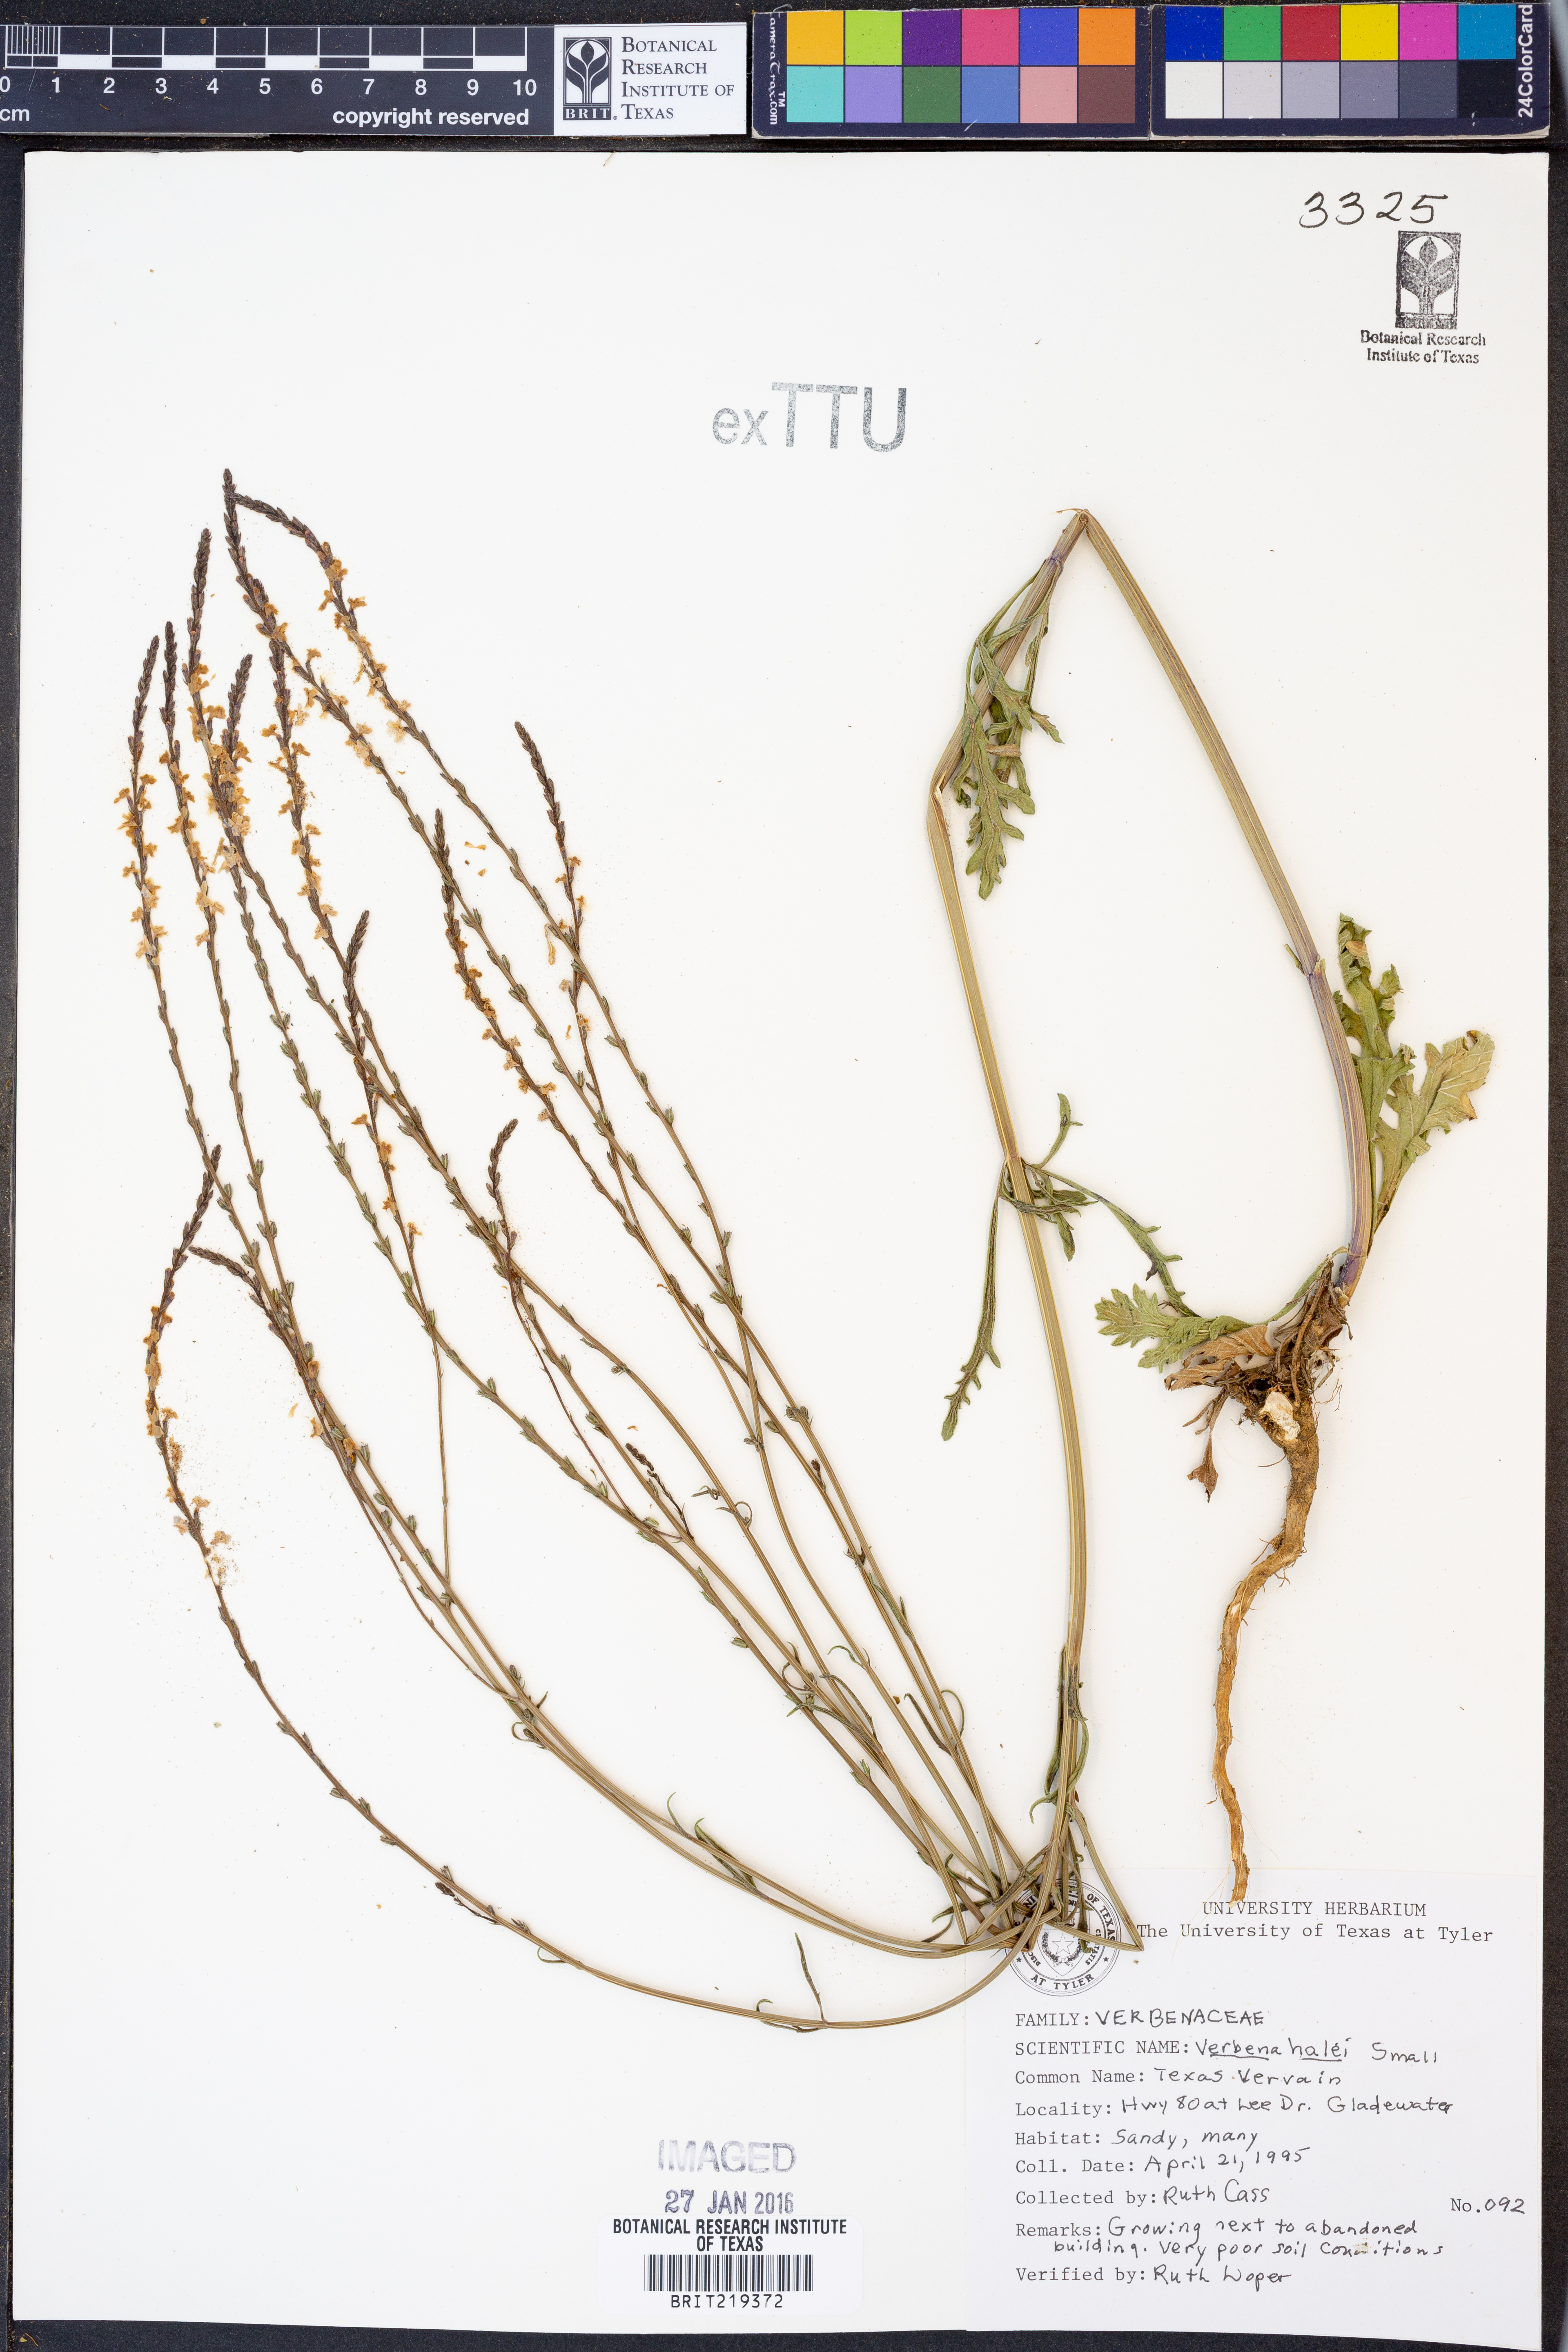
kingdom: Plantae
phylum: Tracheophyta
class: Magnoliopsida
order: Lamiales
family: Verbenaceae
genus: Verbena
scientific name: Verbena halei
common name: Texas vervain
